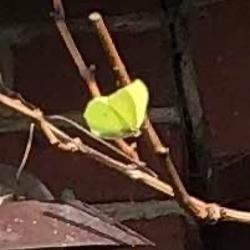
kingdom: Animalia
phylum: Arthropoda
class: Insecta
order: Lepidoptera
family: Pieridae
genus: Gonepteryx
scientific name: Gonepteryx rhamni
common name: Citronsommerfugl
